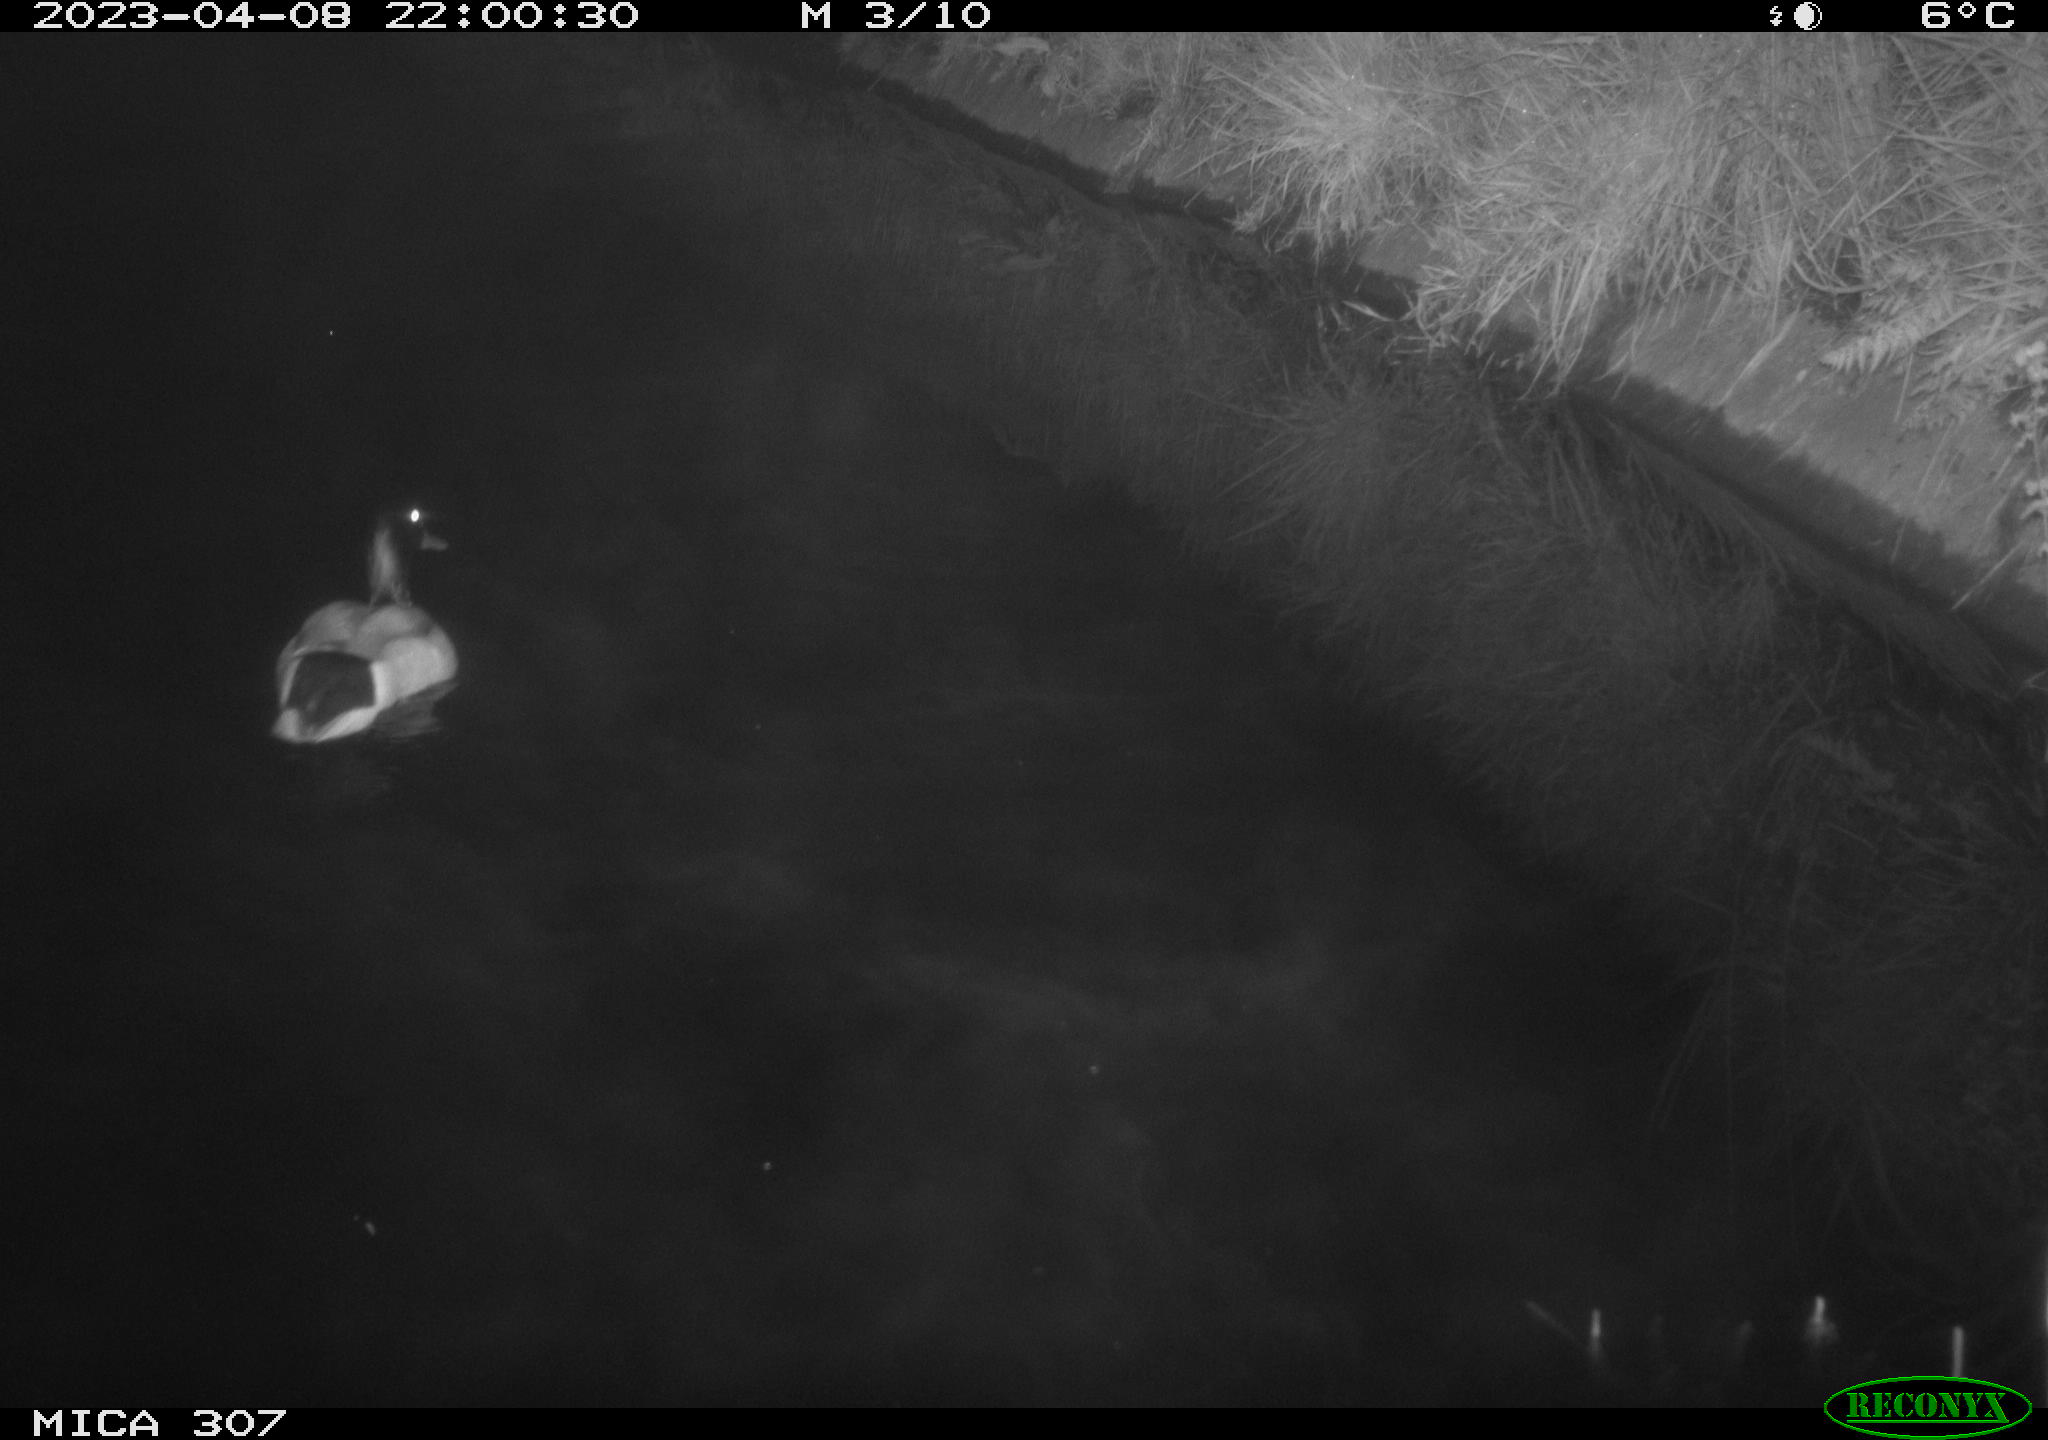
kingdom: Animalia
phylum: Chordata
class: Aves
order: Anseriformes
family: Anatidae
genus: Anas
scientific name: Anas
